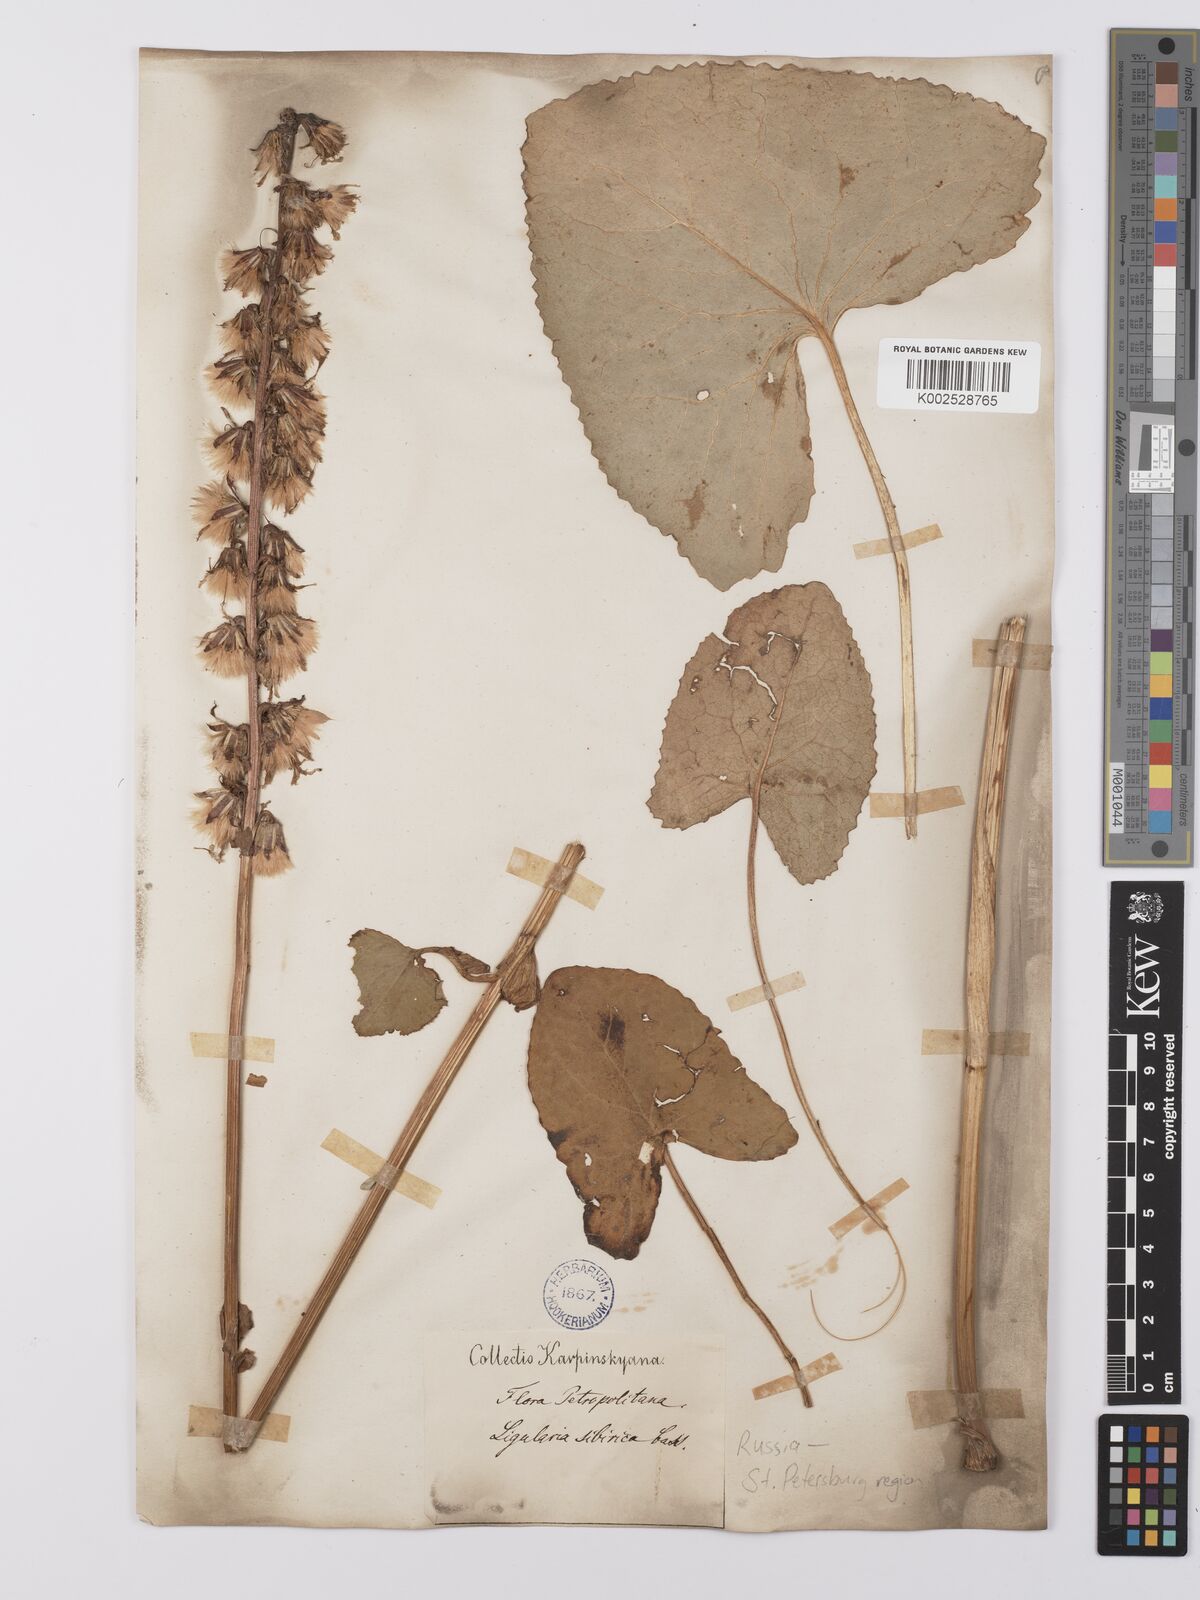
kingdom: Plantae
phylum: Tracheophyta
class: Magnoliopsida
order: Asterales
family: Asteraceae
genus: Ligularia
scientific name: Ligularia sibirica
